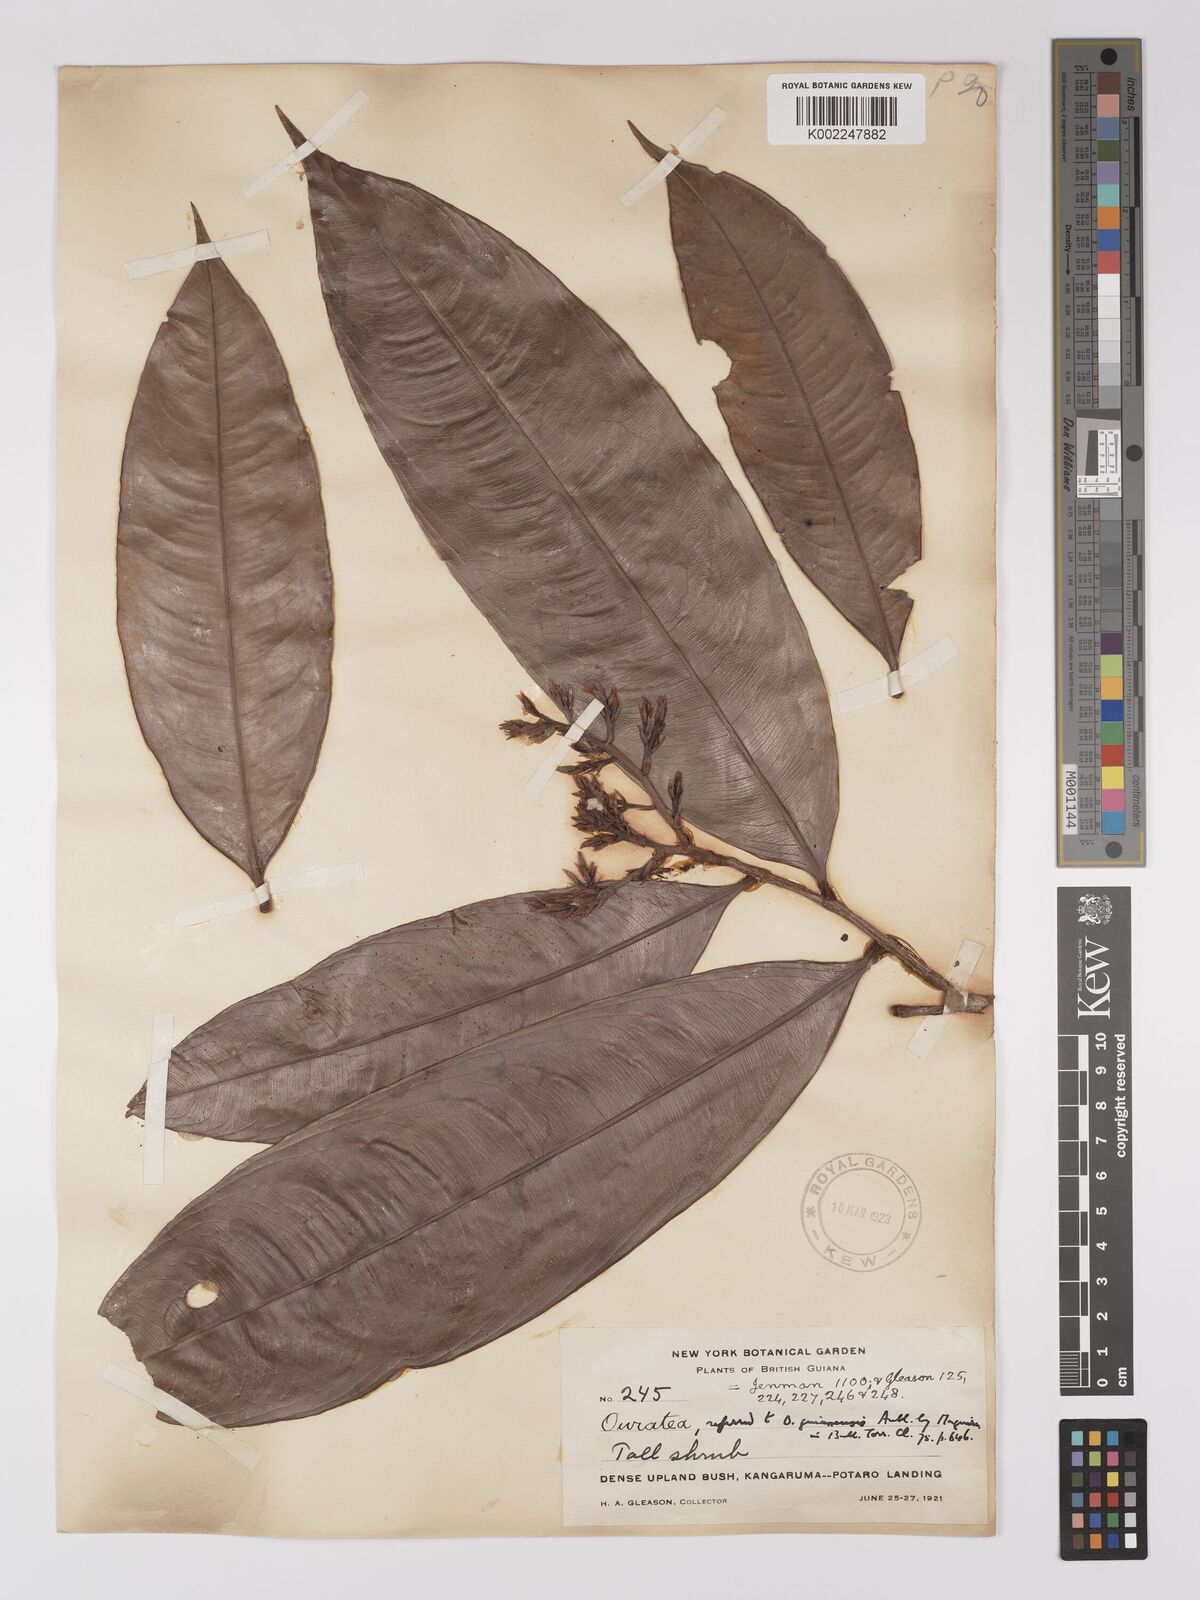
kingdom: Plantae
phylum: Tracheophyta
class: Magnoliopsida
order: Malpighiales
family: Ochnaceae
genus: Ouratea
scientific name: Ouratea longifolia
